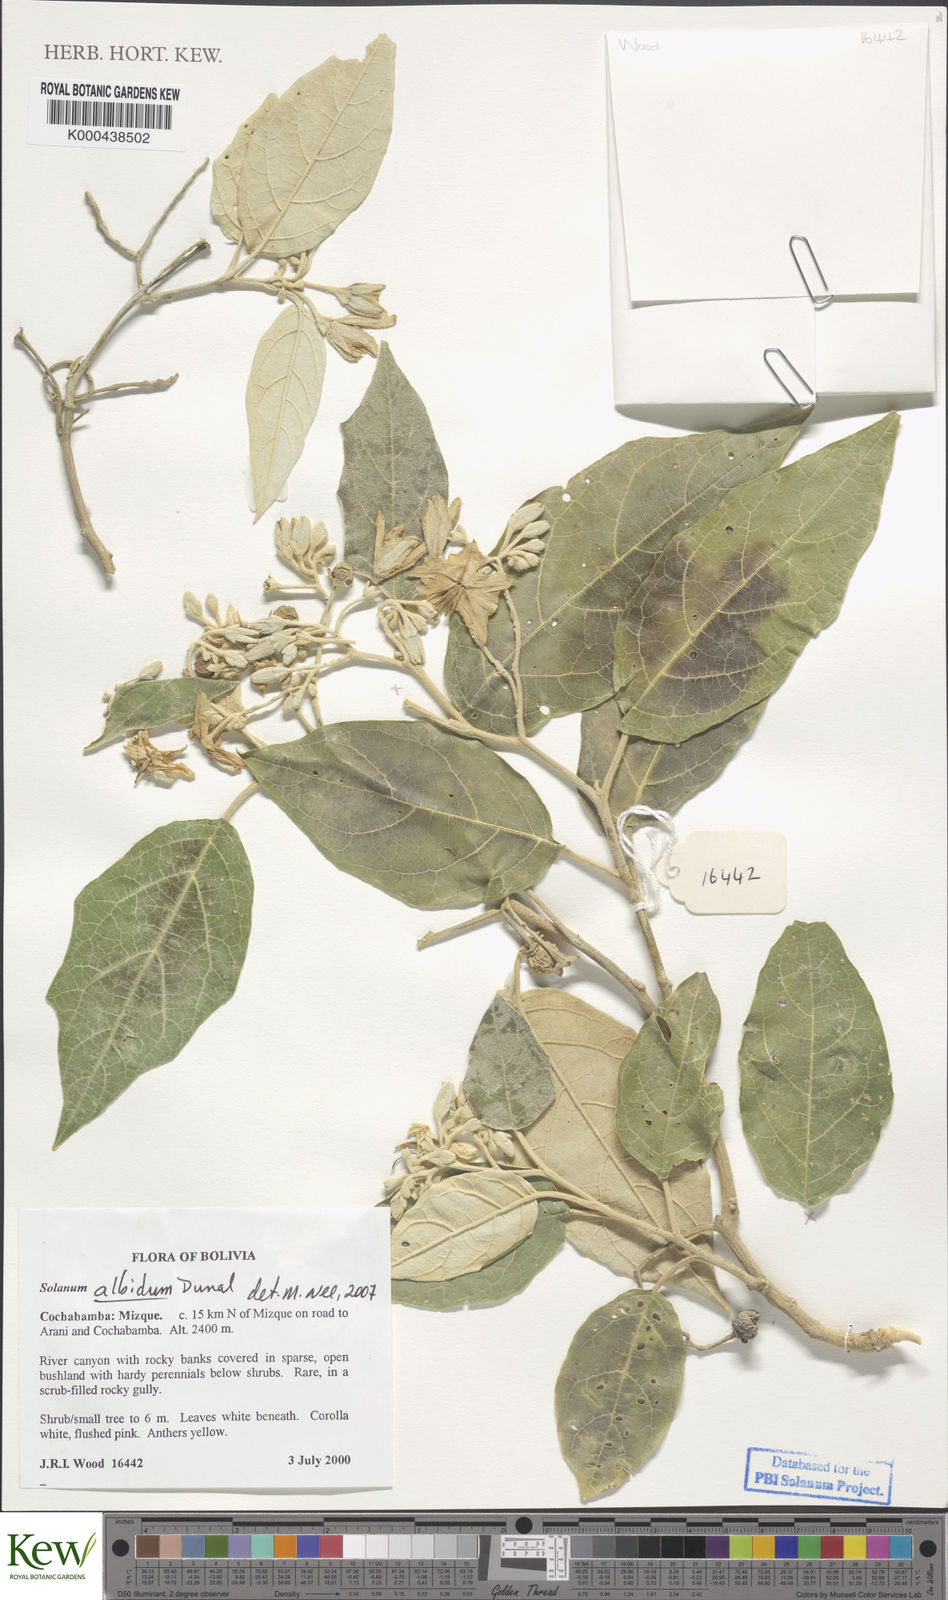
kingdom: Plantae
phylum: Tracheophyta
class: Magnoliopsida
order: Solanales
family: Solanaceae
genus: Solanum
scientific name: Solanum albidum
